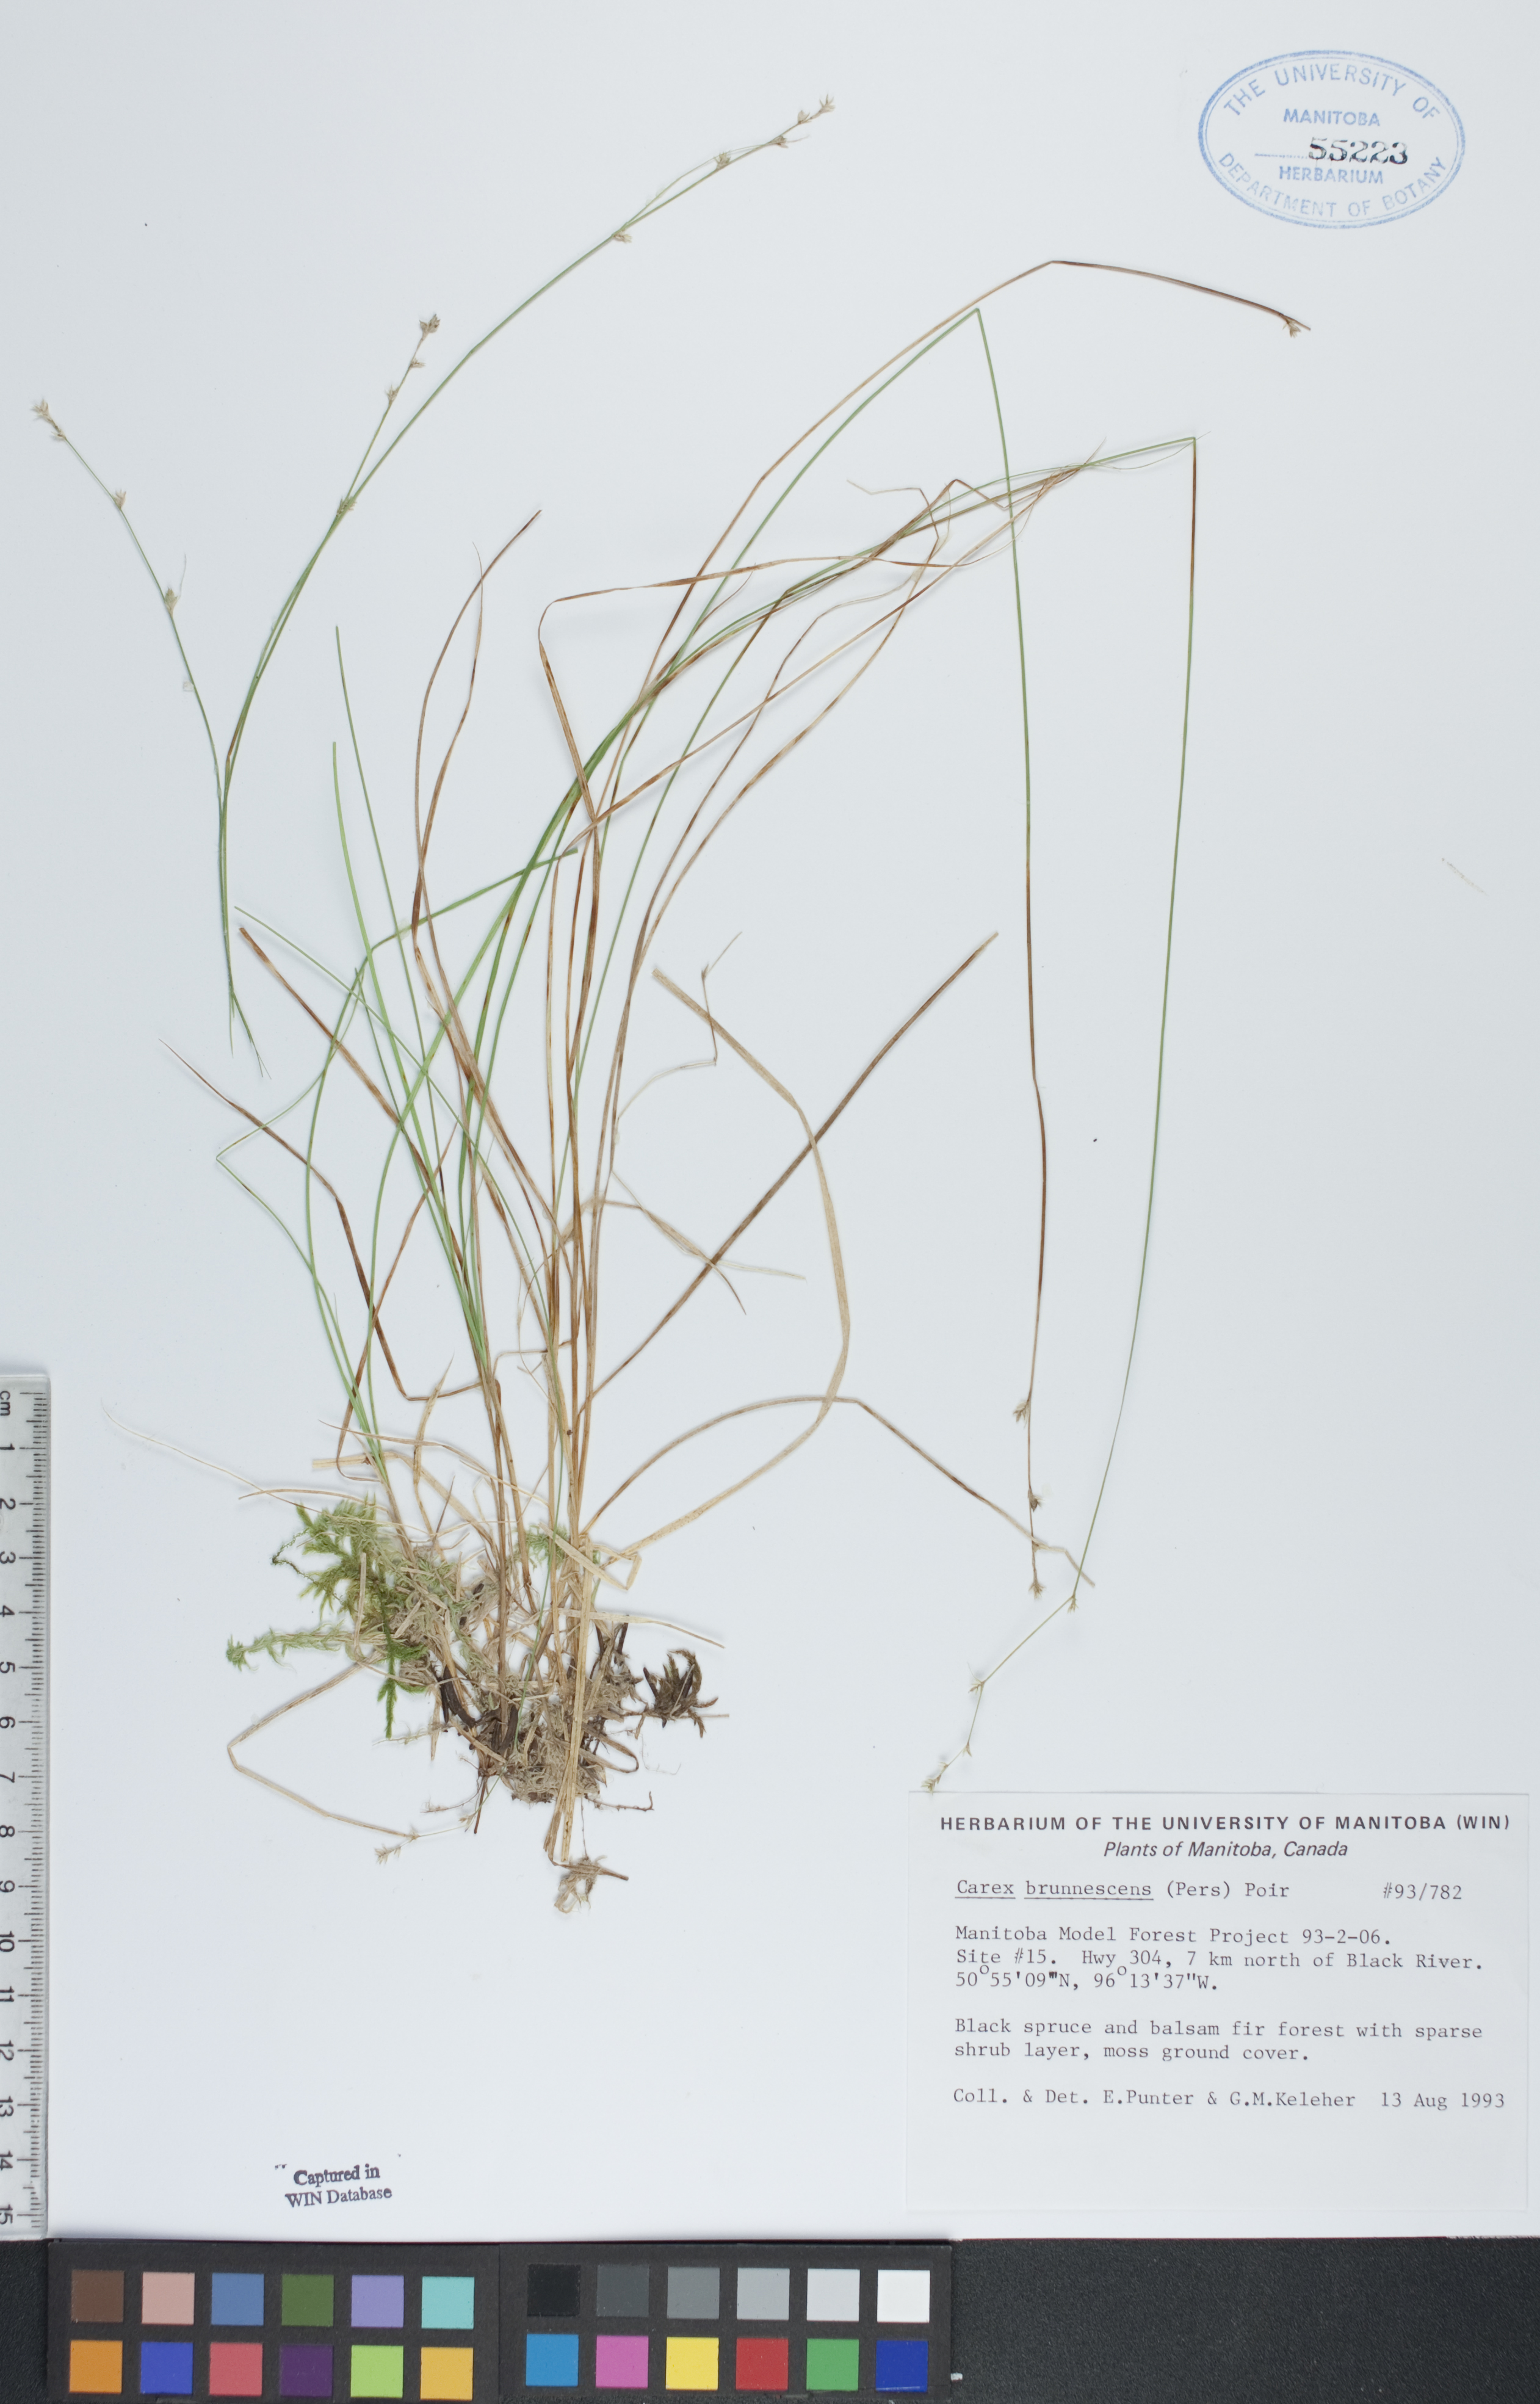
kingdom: Plantae
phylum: Tracheophyta
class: Liliopsida
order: Poales
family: Cyperaceae
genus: Carex
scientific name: Carex brunnescens
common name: Brown sedge
